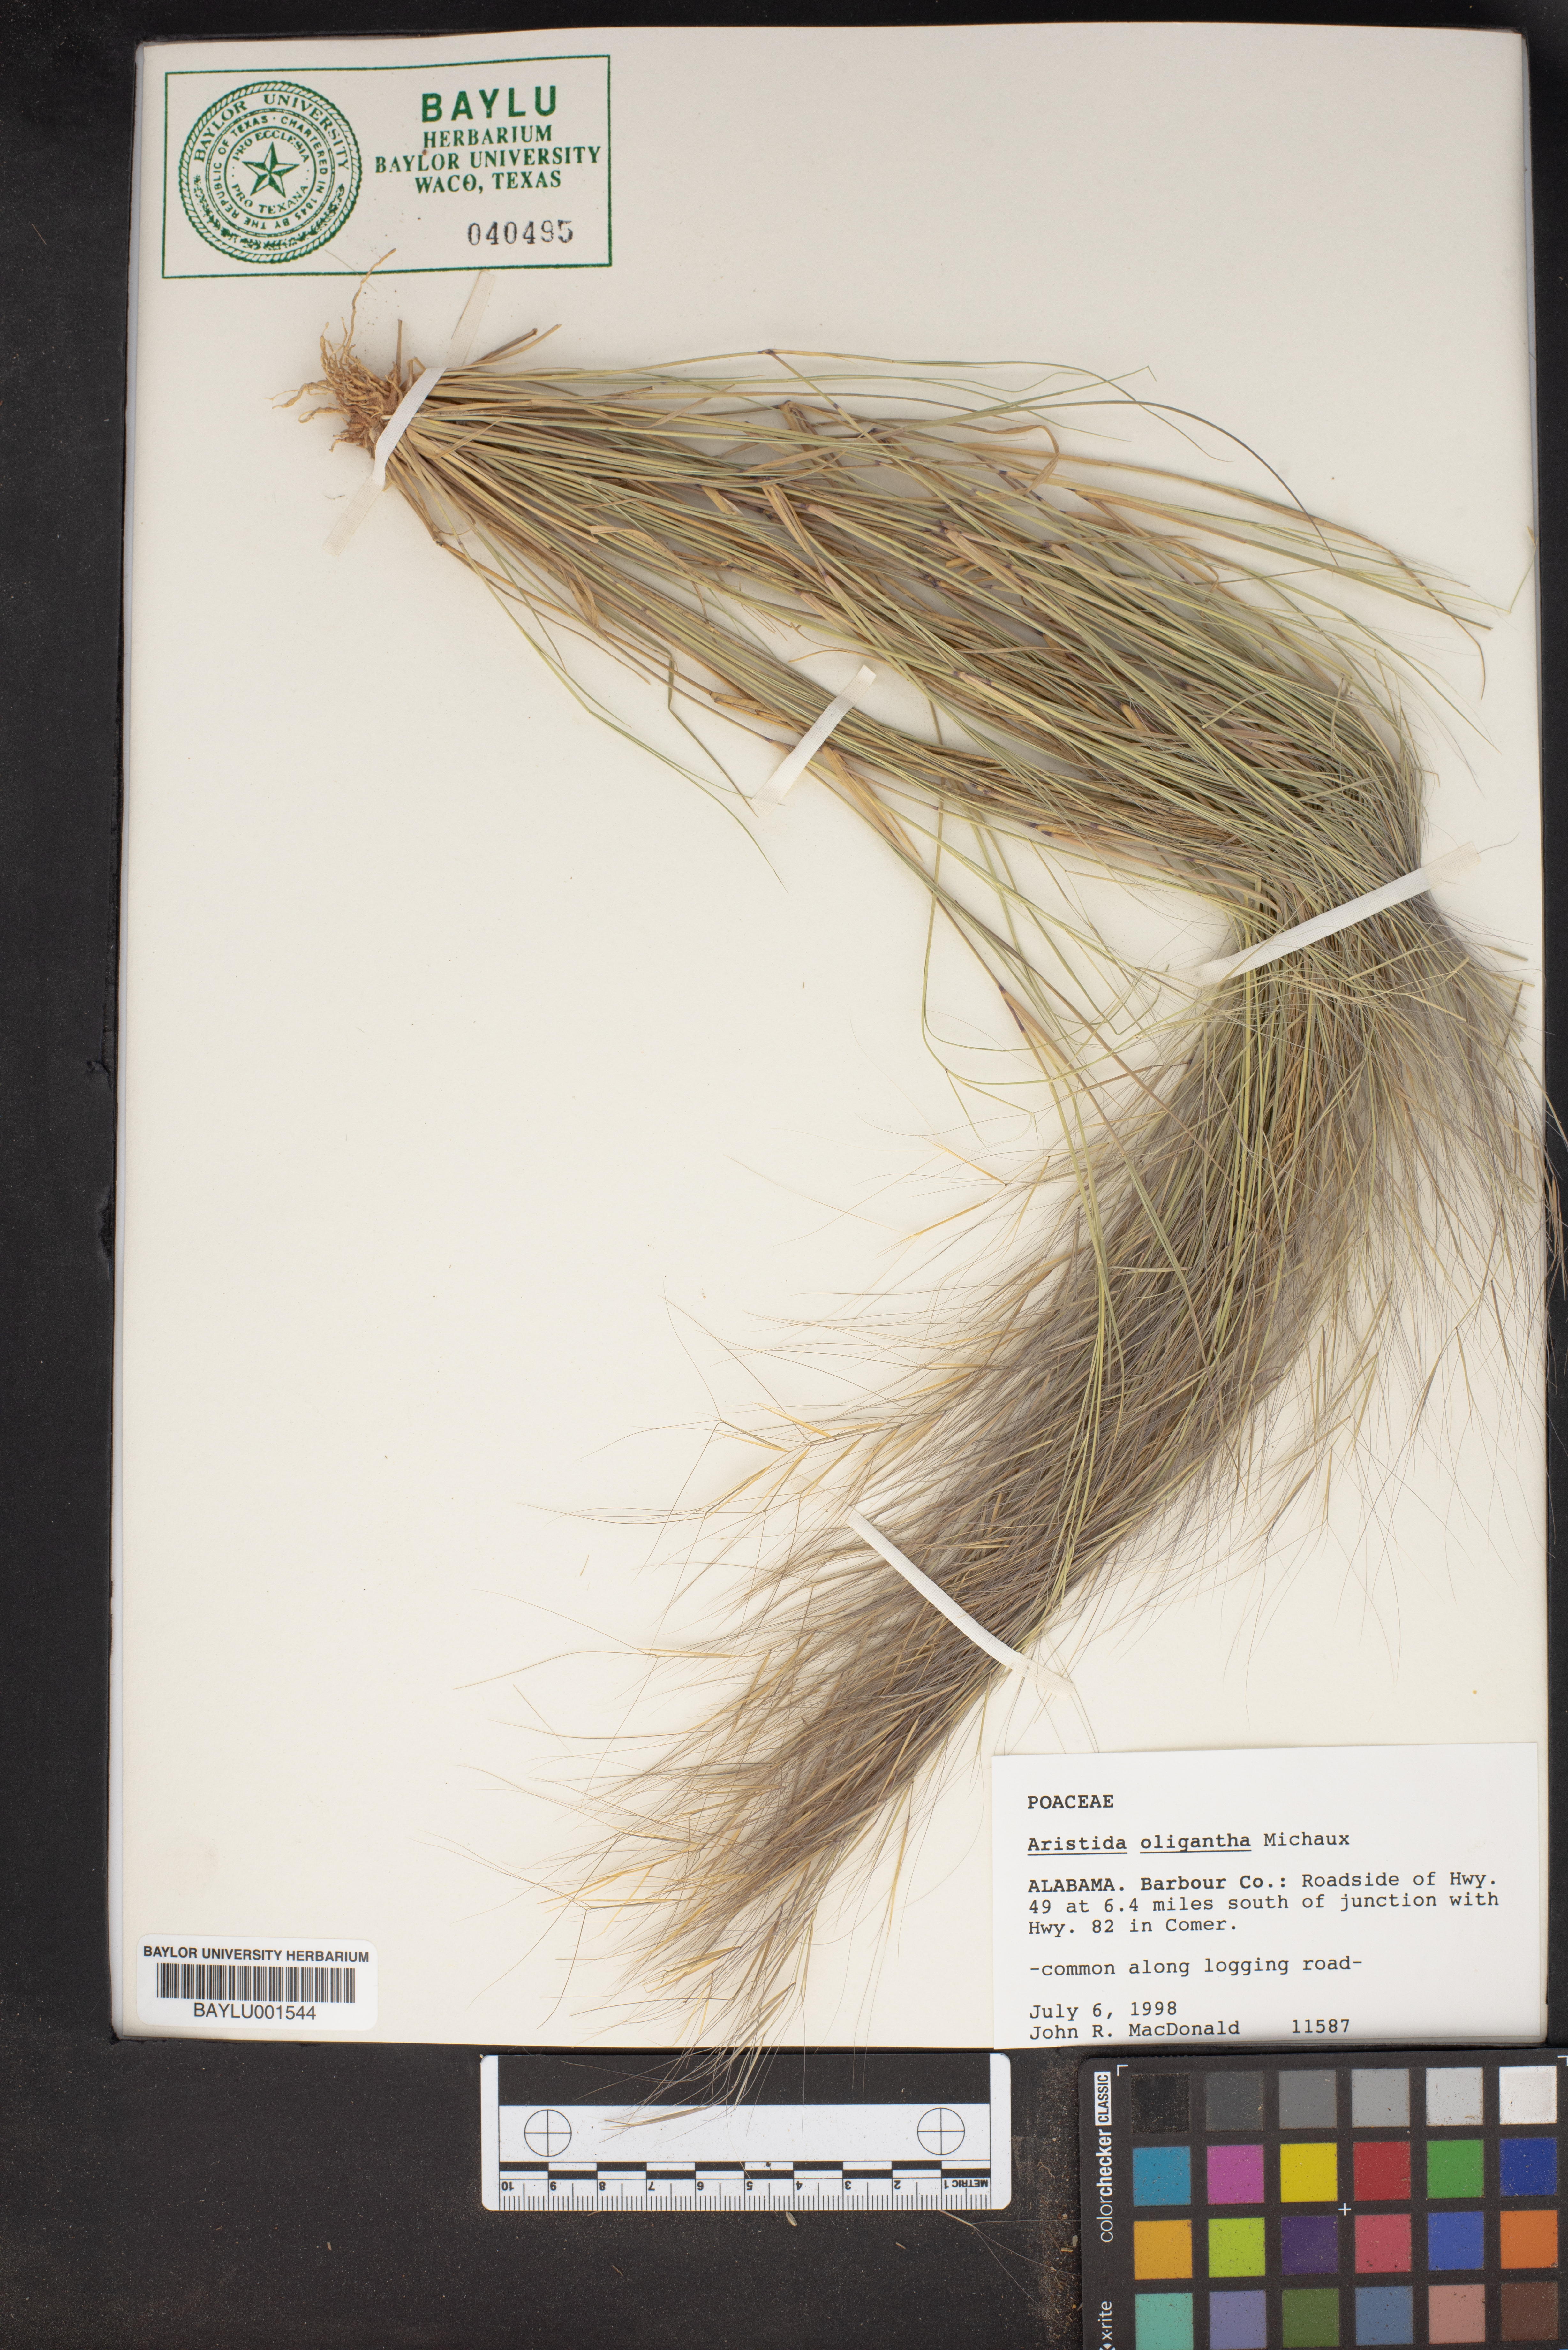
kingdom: Plantae
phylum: Tracheophyta
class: Liliopsida
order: Poales
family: Poaceae
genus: Aristida
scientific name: Aristida oligantha
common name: Few-flowered aristida
